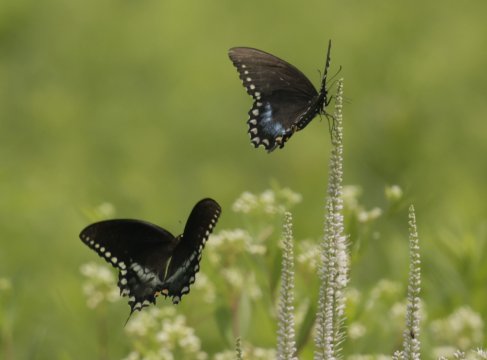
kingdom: Animalia
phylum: Arthropoda
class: Insecta
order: Lepidoptera
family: Papilionidae
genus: Pterourus
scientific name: Pterourus troilus
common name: Spicebush Swallowtail
